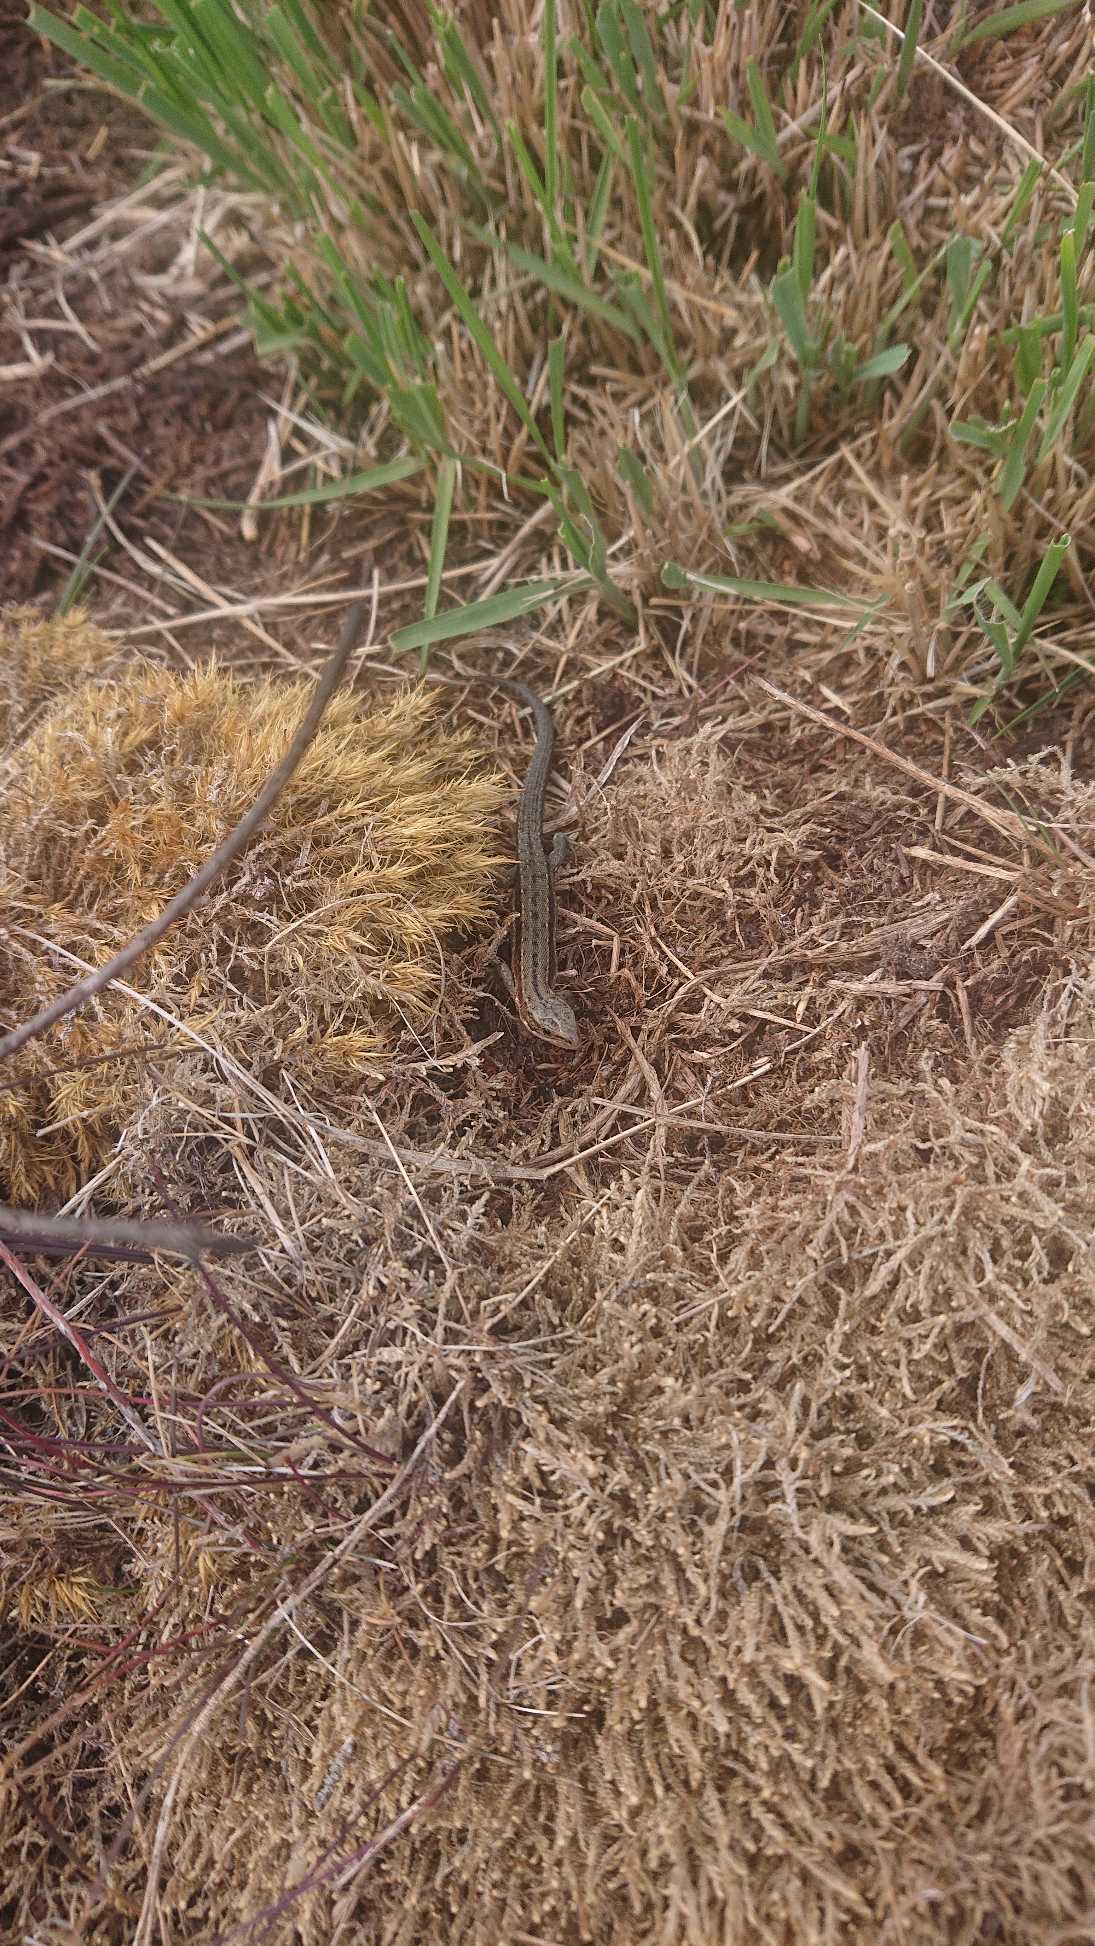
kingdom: Animalia
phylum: Chordata
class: Squamata
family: Lacertidae
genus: Zootoca
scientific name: Zootoca vivipara
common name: Skovfirben
